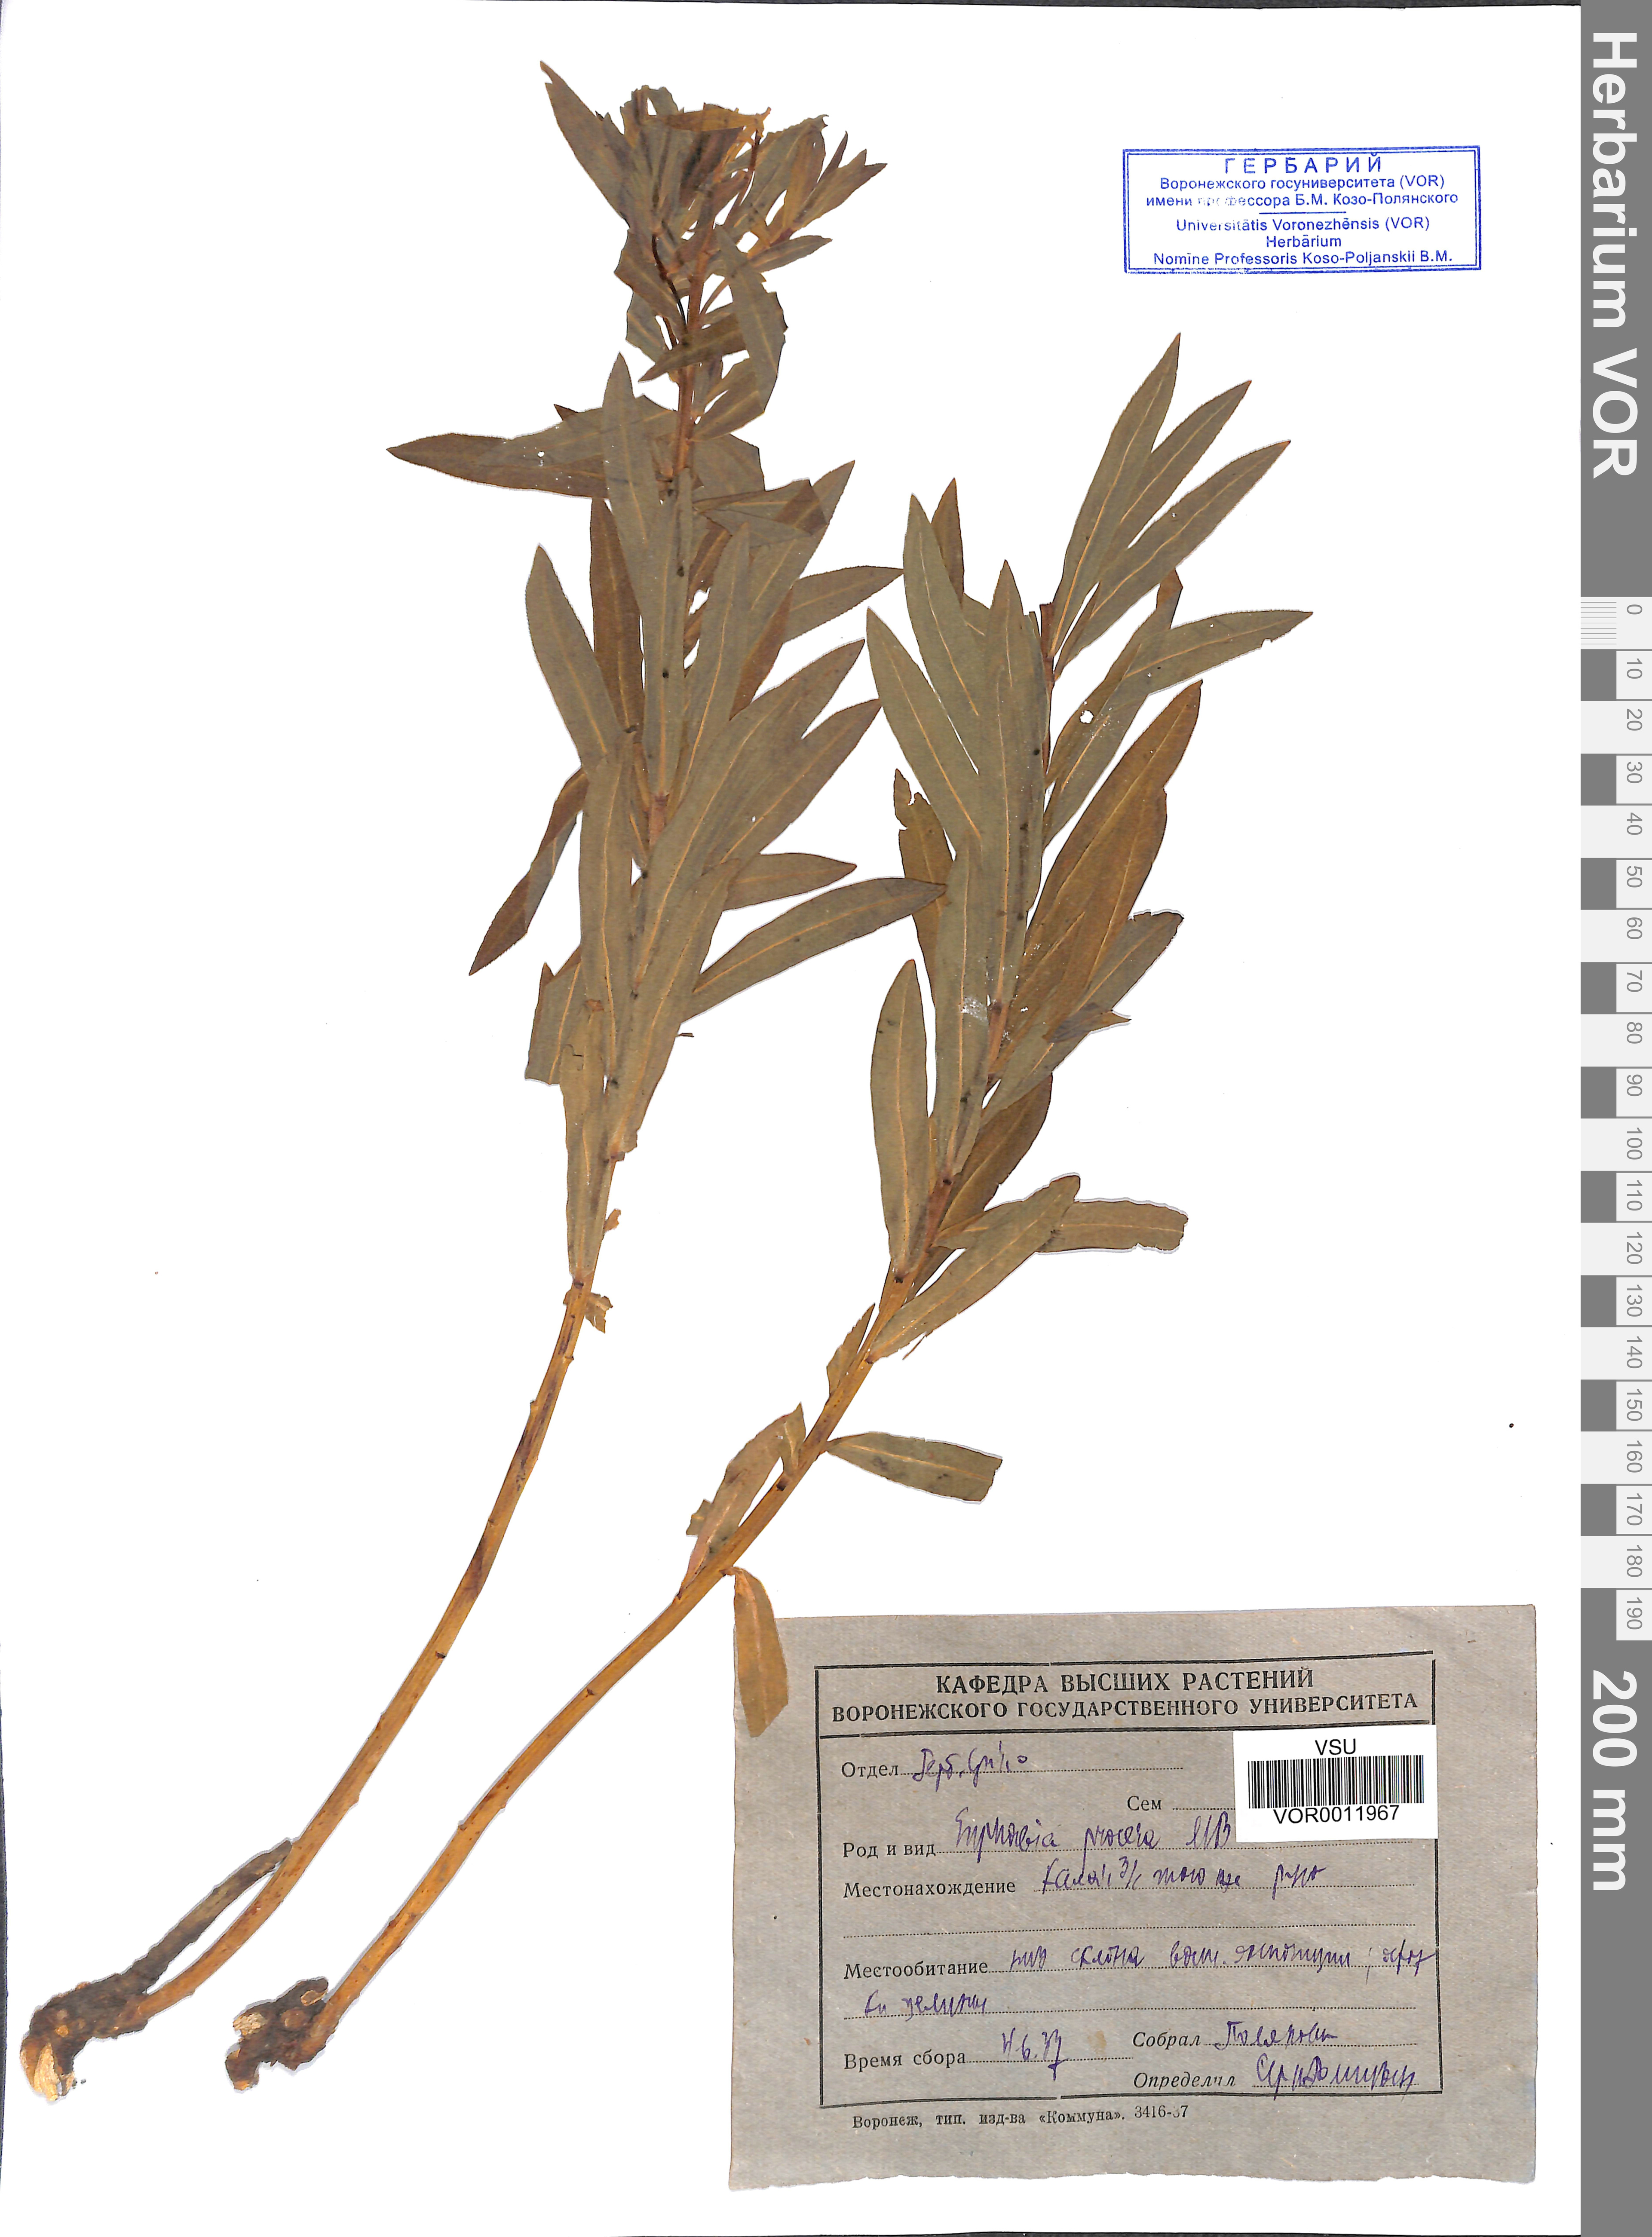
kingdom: Plantae
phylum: Tracheophyta
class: Magnoliopsida
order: Malpighiales
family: Euphorbiaceae
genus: Euphorbia
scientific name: Euphorbia procera
